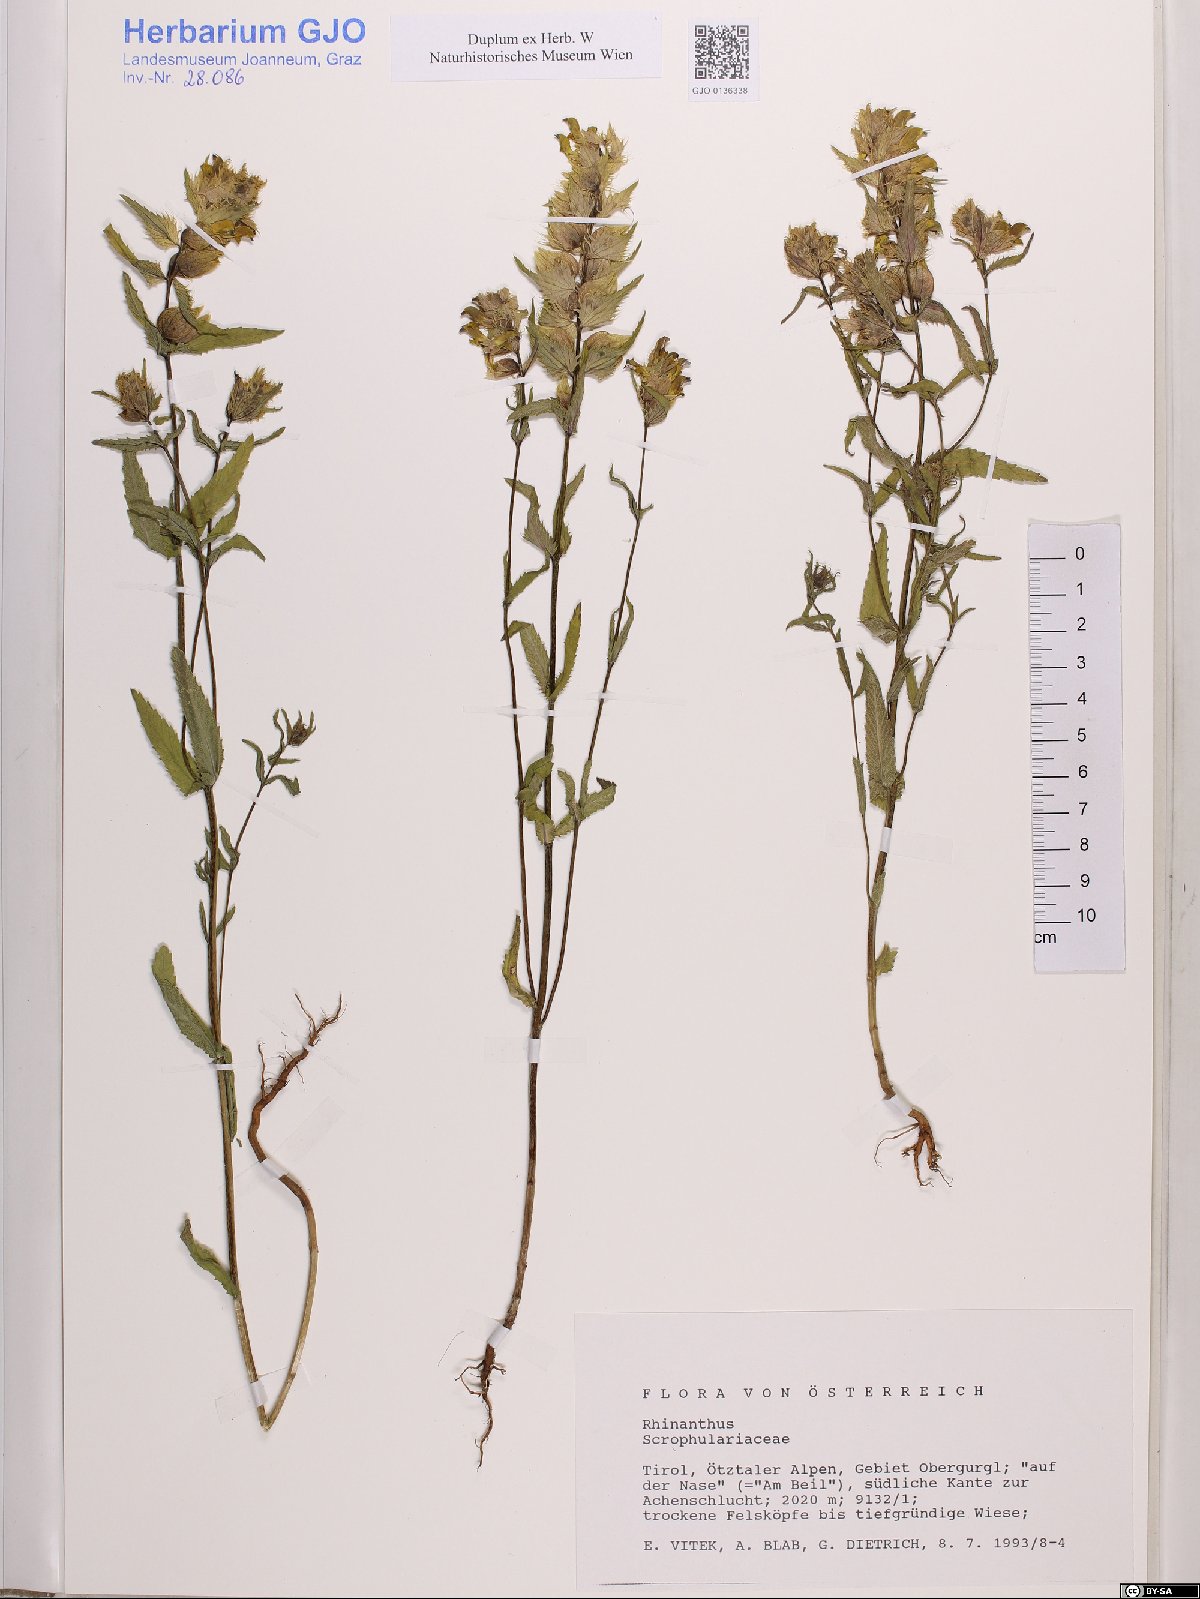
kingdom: Plantae
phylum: Tracheophyta
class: Magnoliopsida
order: Lamiales
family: Orobanchaceae
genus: Rhinanthus
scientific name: Rhinanthus
